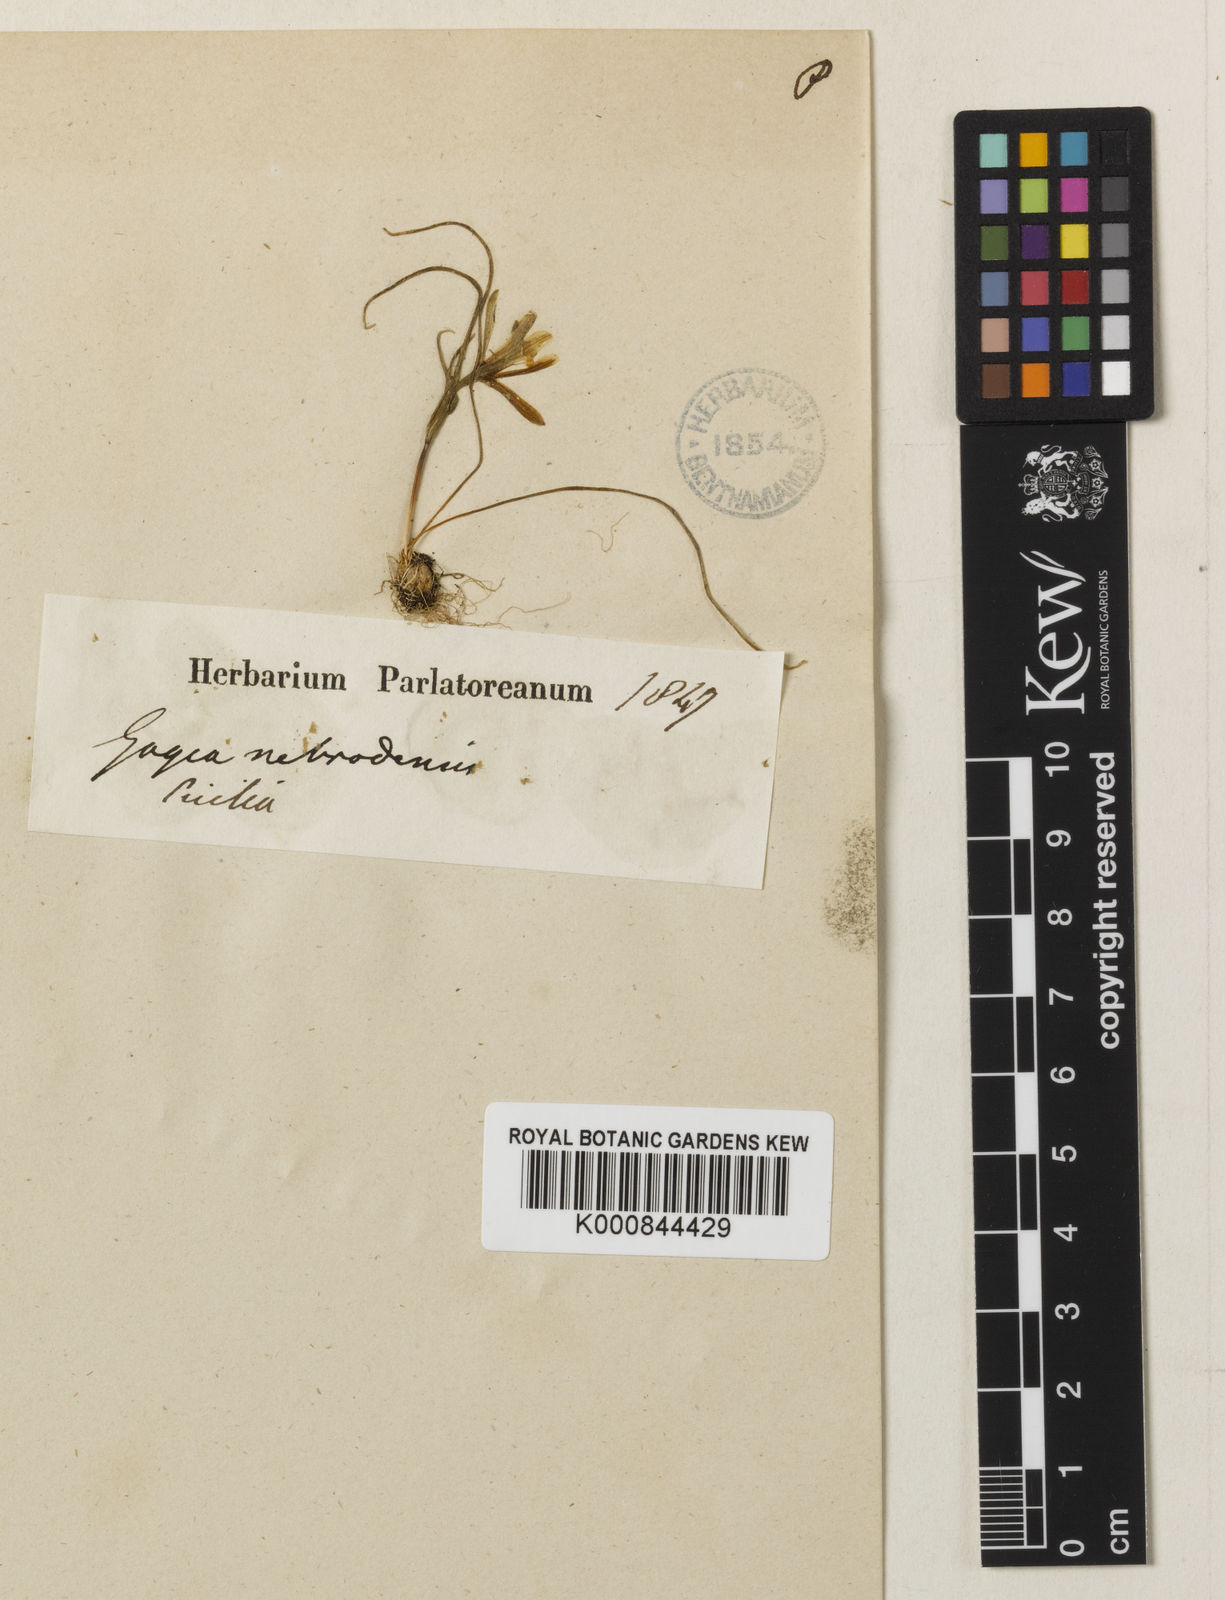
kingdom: Plantae
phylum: Tracheophyta
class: Liliopsida
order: Liliales
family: Liliaceae
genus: Gagea
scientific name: Gagea bohemica
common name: Early star-of-bethlehem
